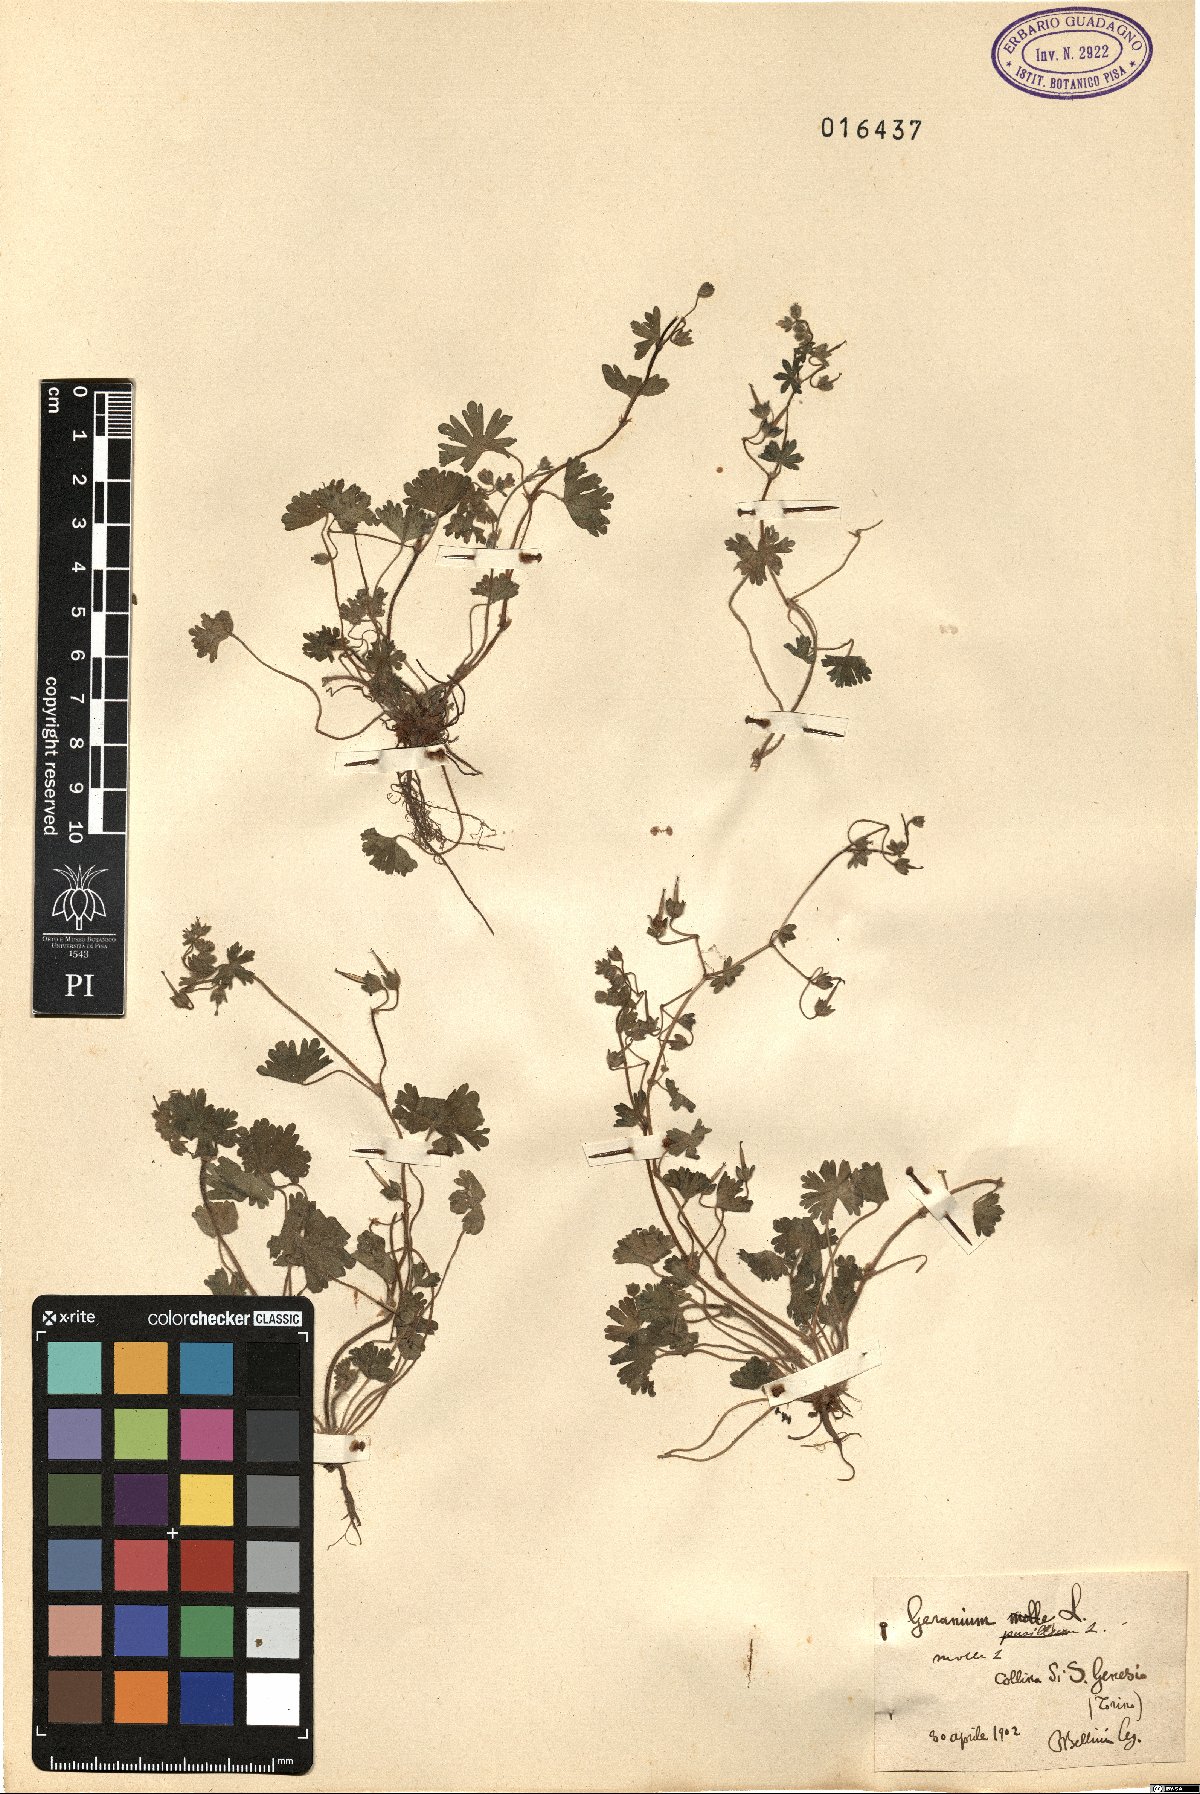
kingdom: Plantae
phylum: Tracheophyta
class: Magnoliopsida
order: Geraniales
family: Geraniaceae
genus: Geranium
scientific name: Geranium molle
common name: Dove's-foot crane's-bill
